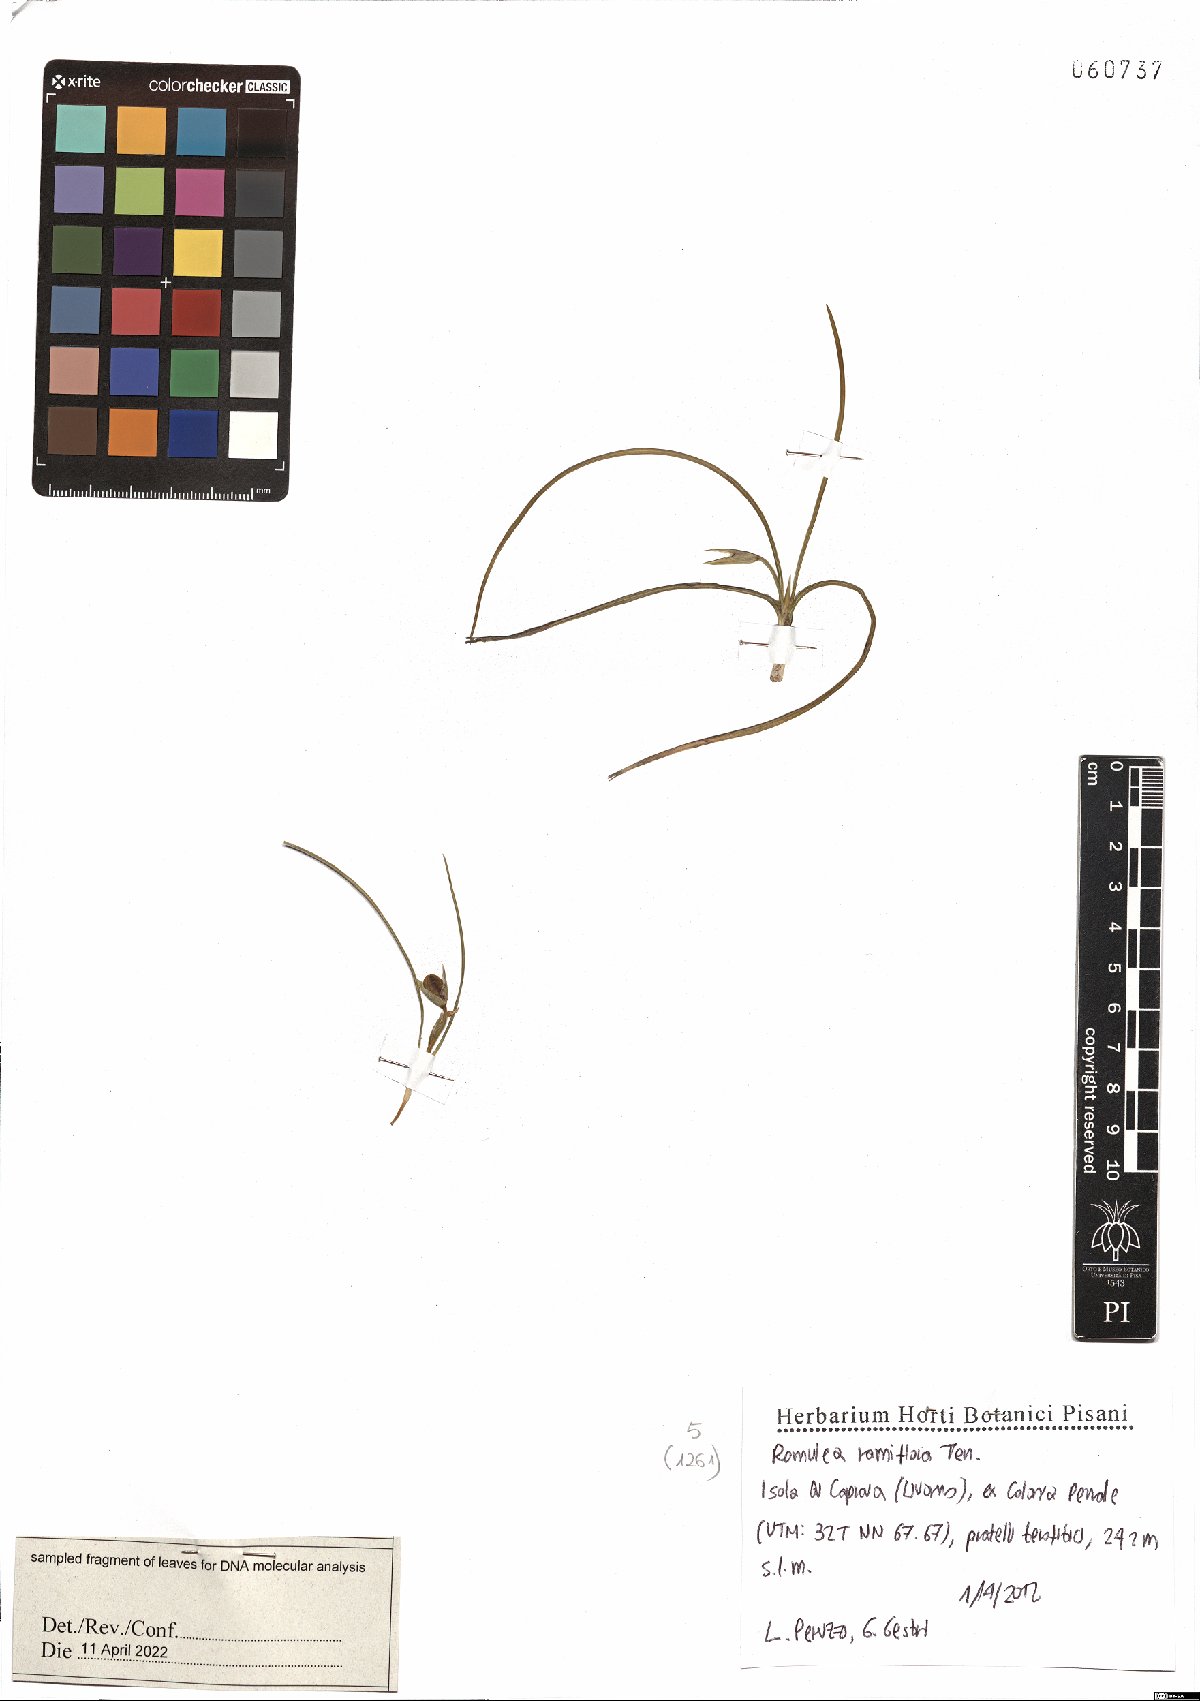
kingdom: Plantae
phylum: Tracheophyta
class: Liliopsida
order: Asparagales
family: Iridaceae
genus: Romulea
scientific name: Romulea ramiflora
